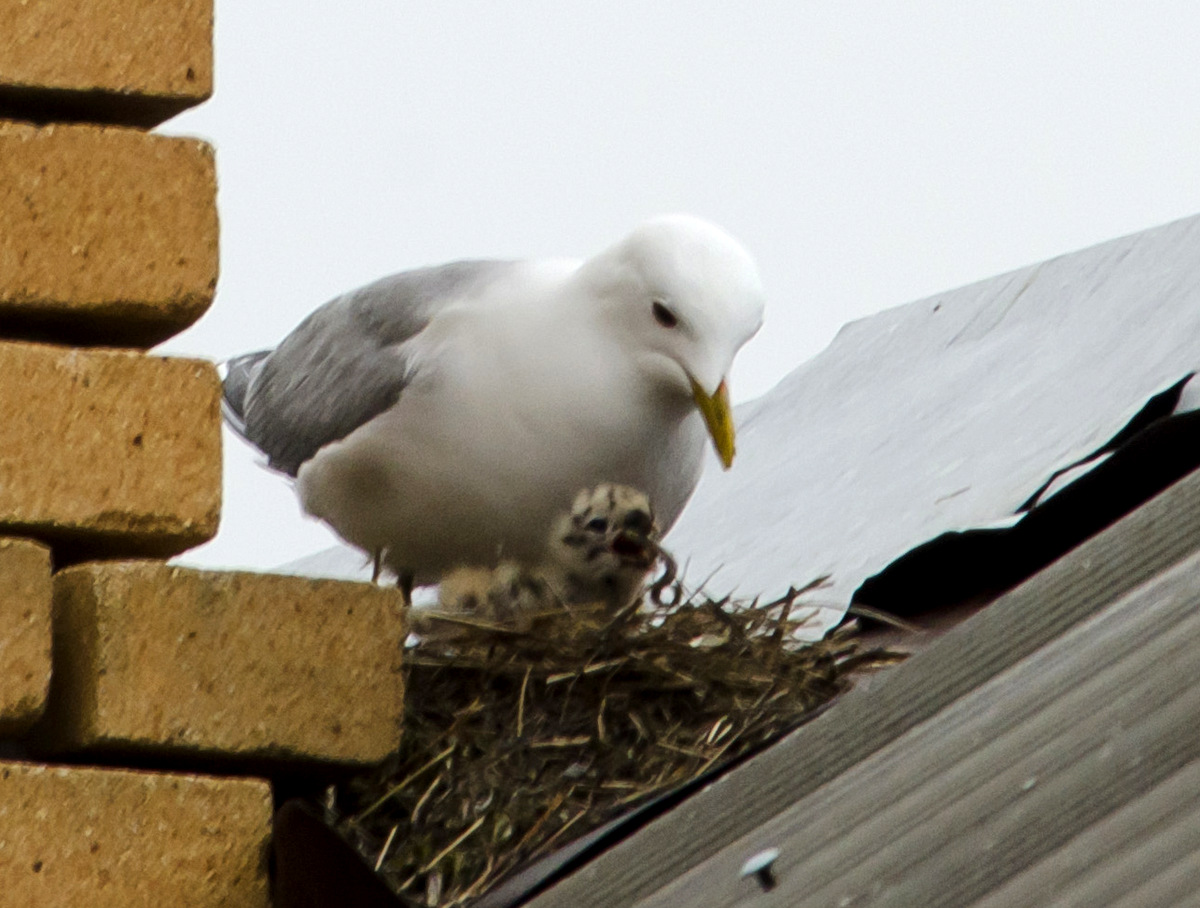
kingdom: Animalia
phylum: Chordata
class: Aves
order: Charadriiformes
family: Laridae
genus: Larus
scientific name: Larus canus
